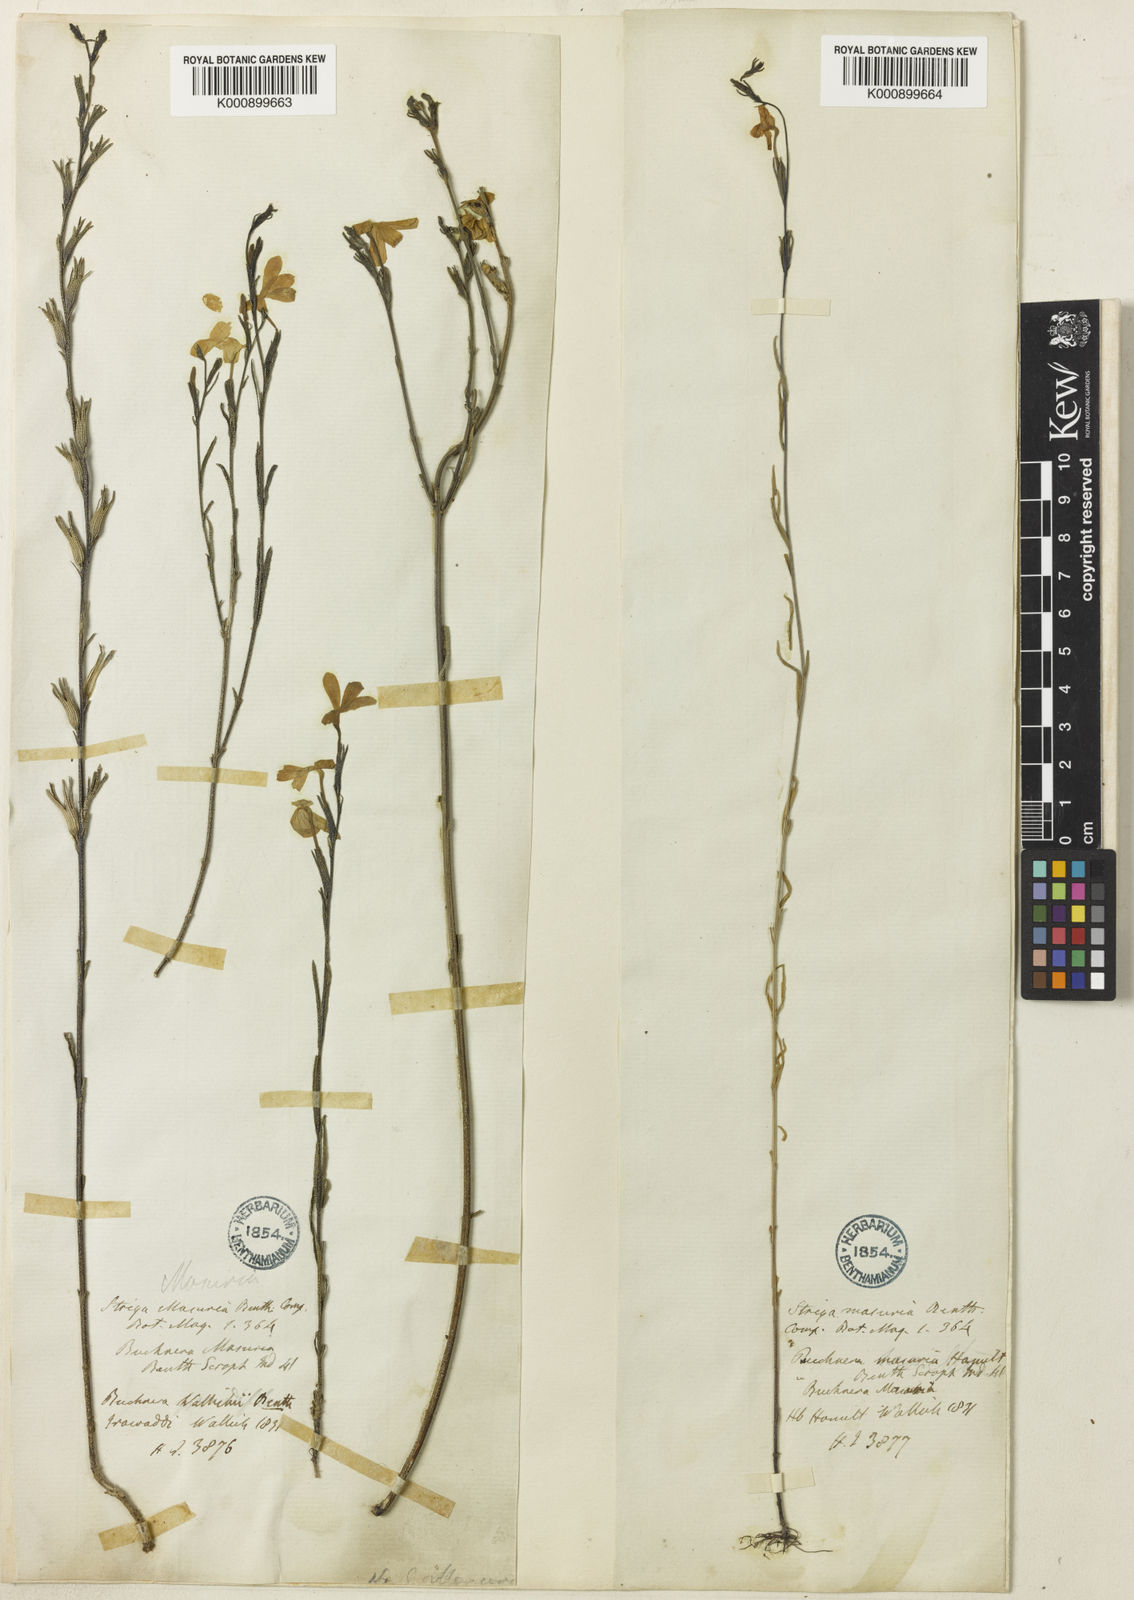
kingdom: Plantae
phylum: Tracheophyta
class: Magnoliopsida
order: Lamiales
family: Orobanchaceae
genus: Striga
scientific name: Striga masuria
